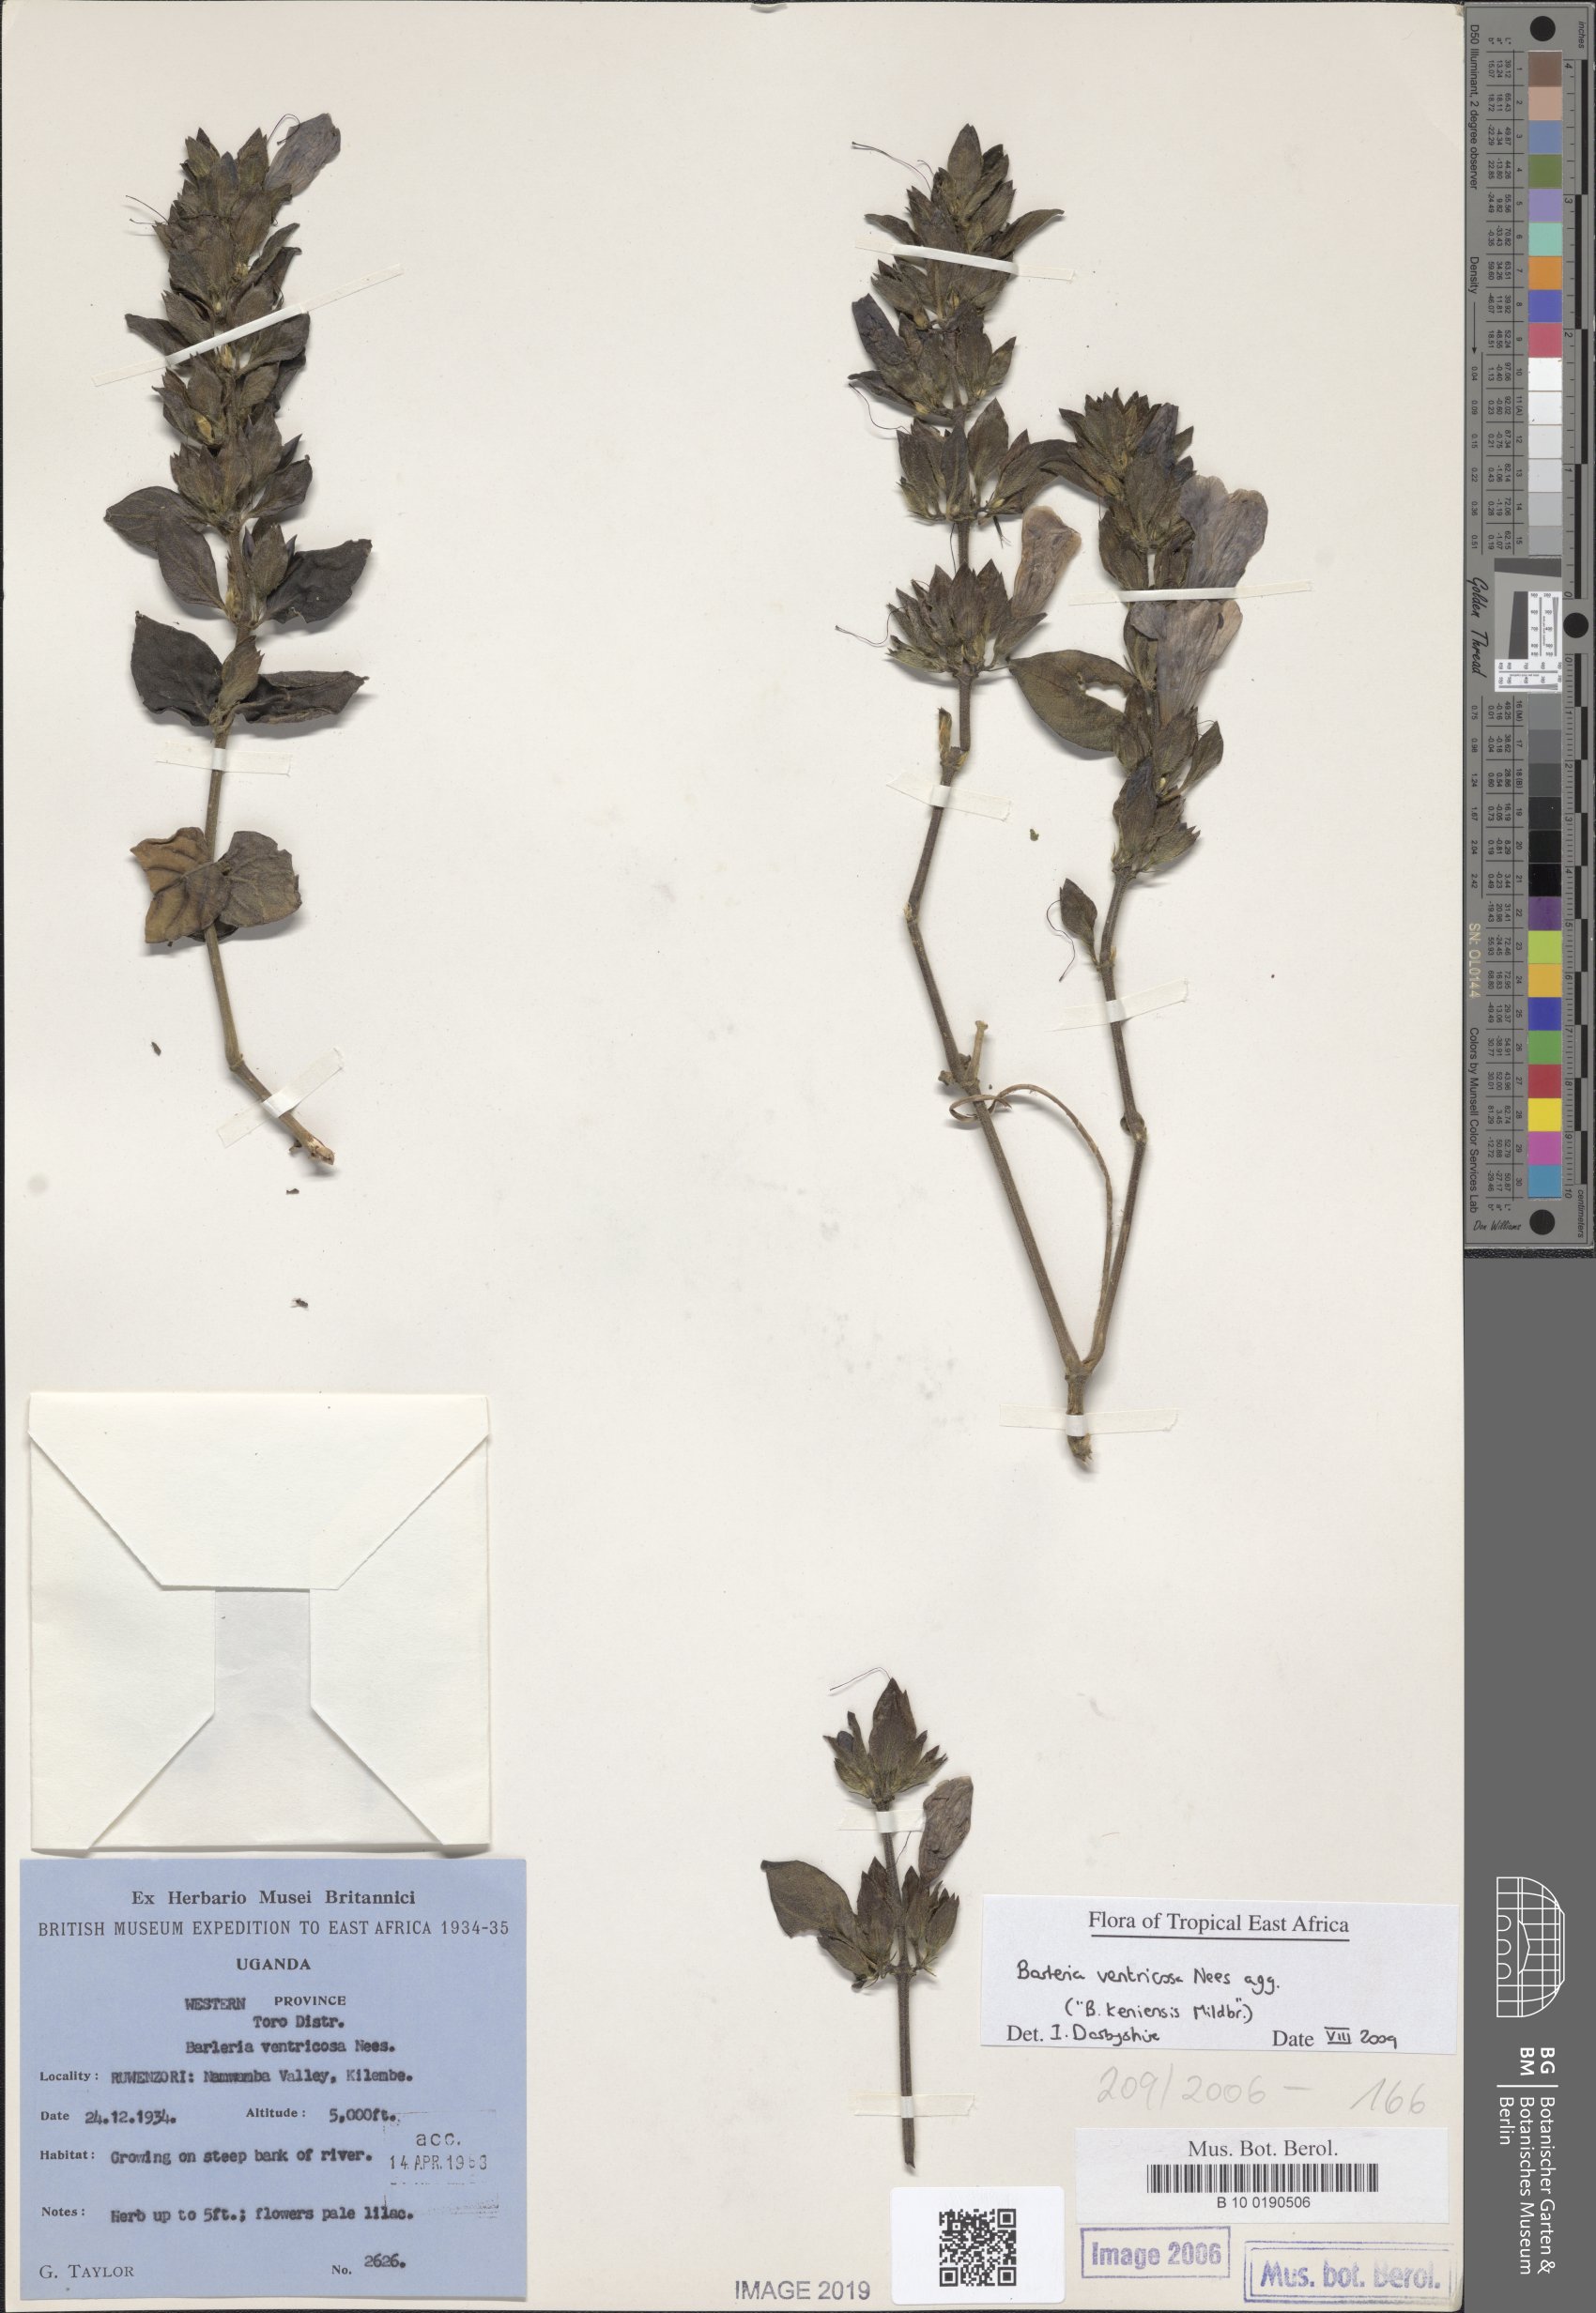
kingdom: Plantae
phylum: Tracheophyta
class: Magnoliopsida
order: Lamiales
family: Acanthaceae
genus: Barleria
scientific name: Barleria ventricosa
